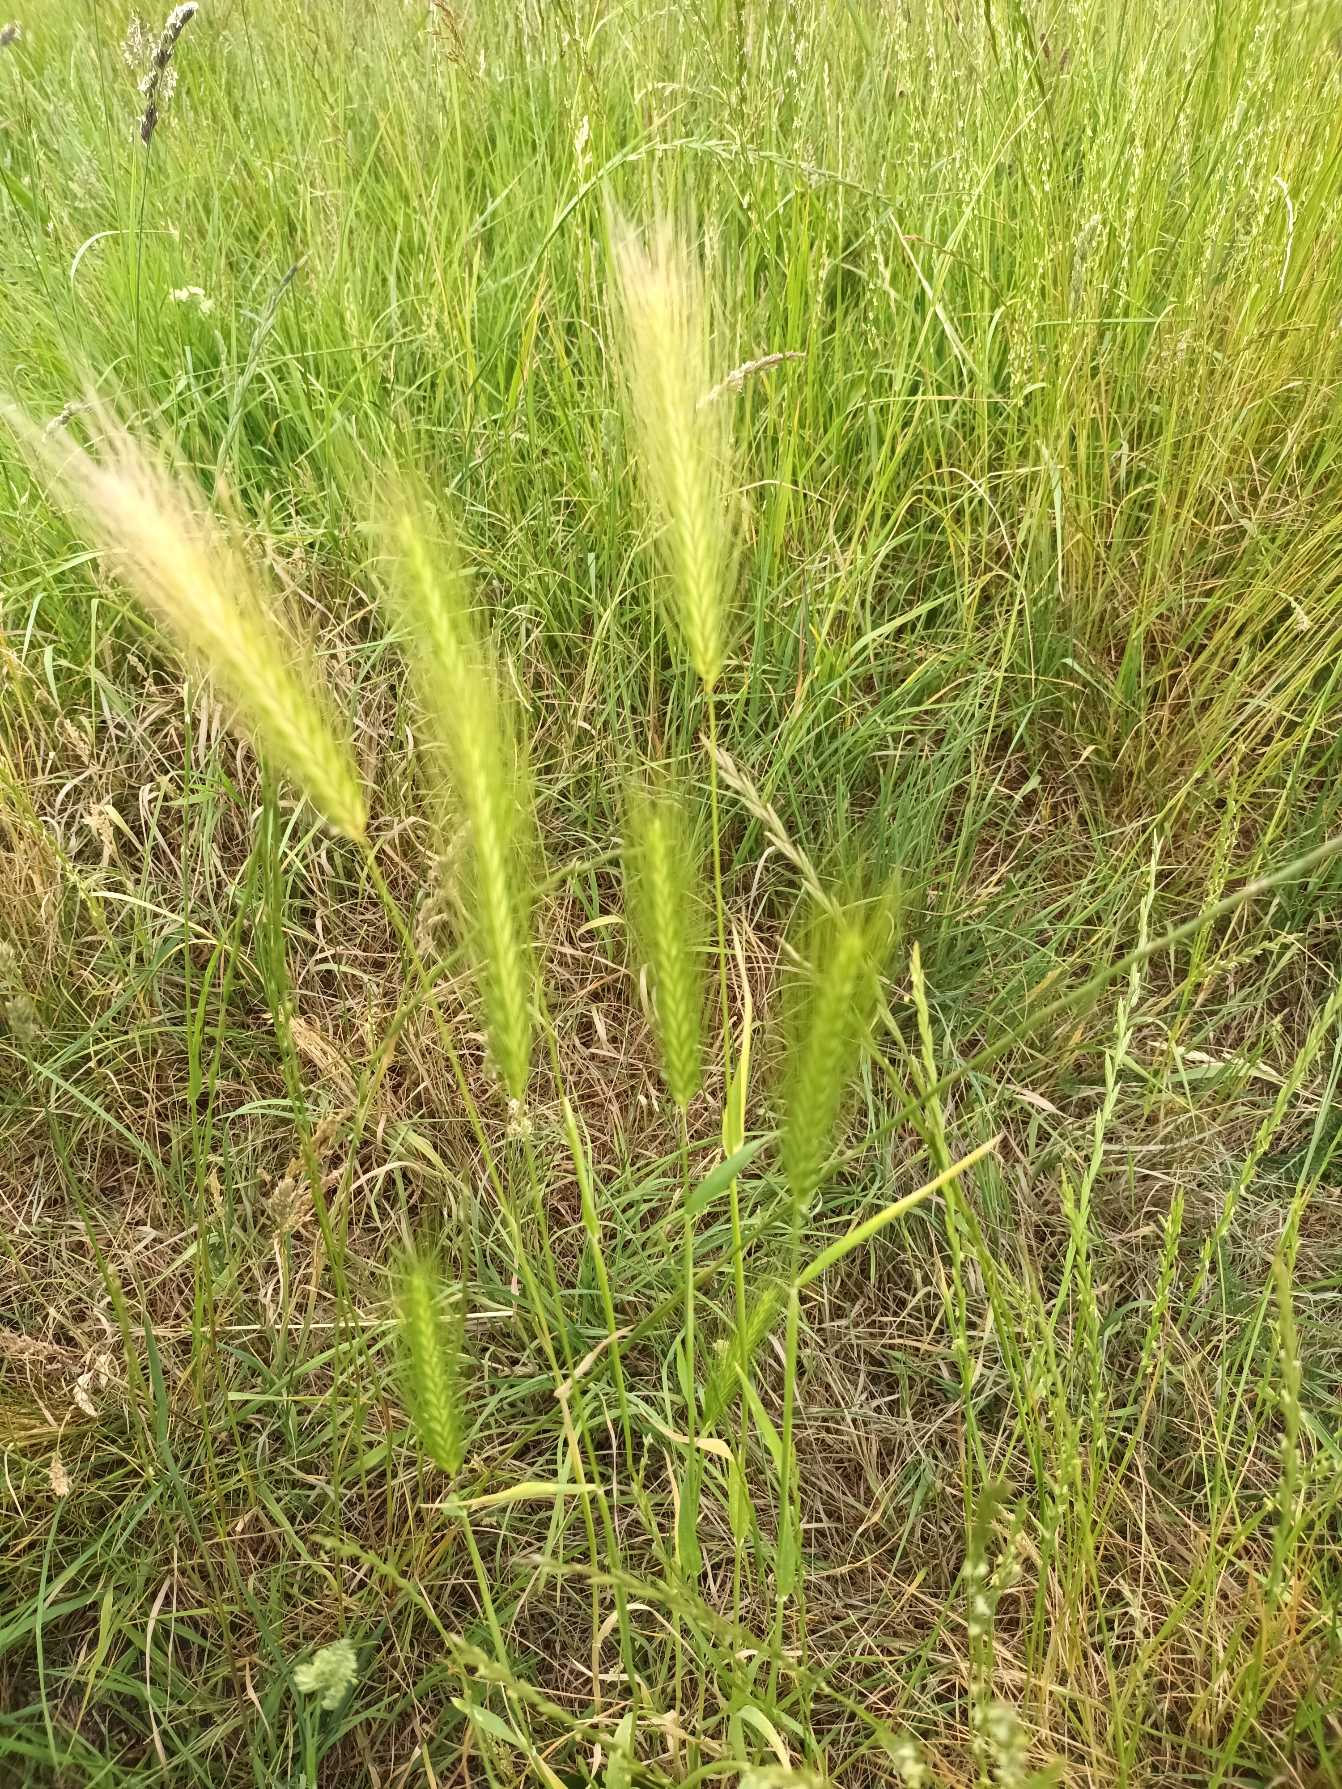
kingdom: Plantae
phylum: Tracheophyta
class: Liliopsida
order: Poales
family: Poaceae
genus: Hordeum
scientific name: Hordeum murinum
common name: Gold byg
